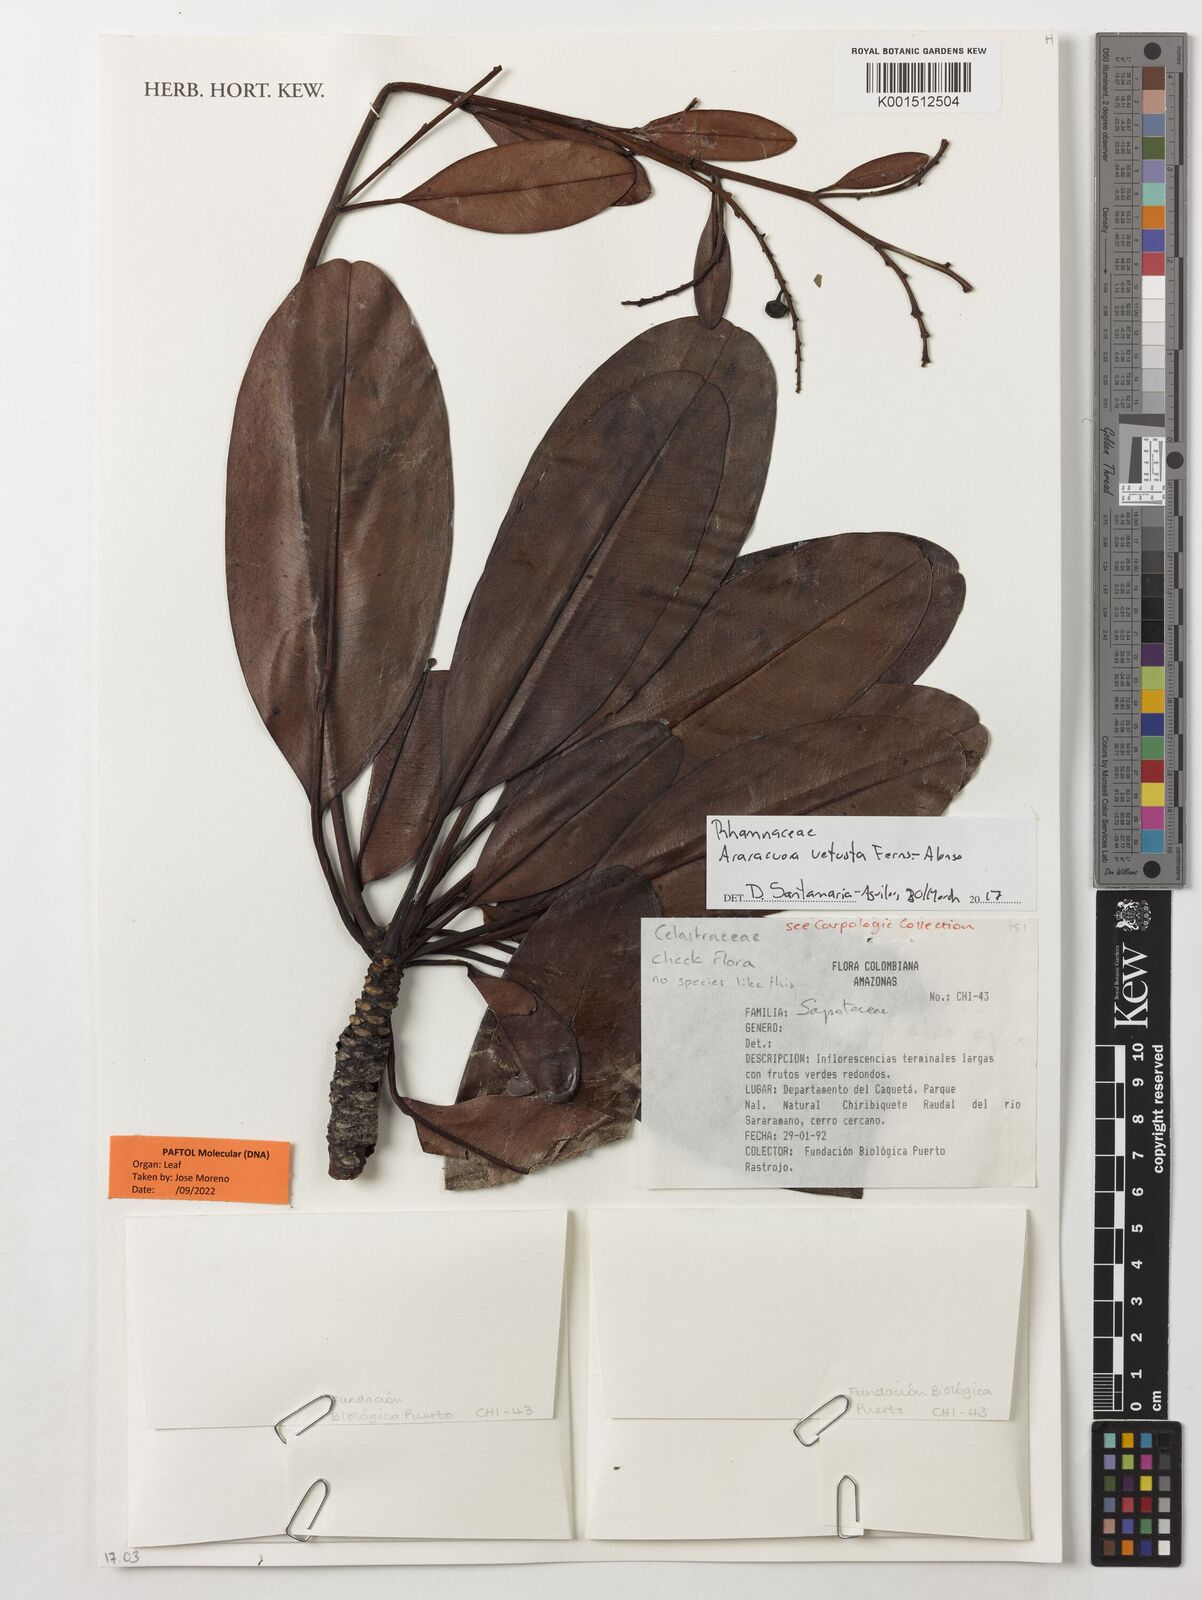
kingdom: Plantae
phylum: Tracheophyta
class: Magnoliopsida
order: Rosales
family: Rhamnaceae
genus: Araracuara
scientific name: Araracuara vetusta
